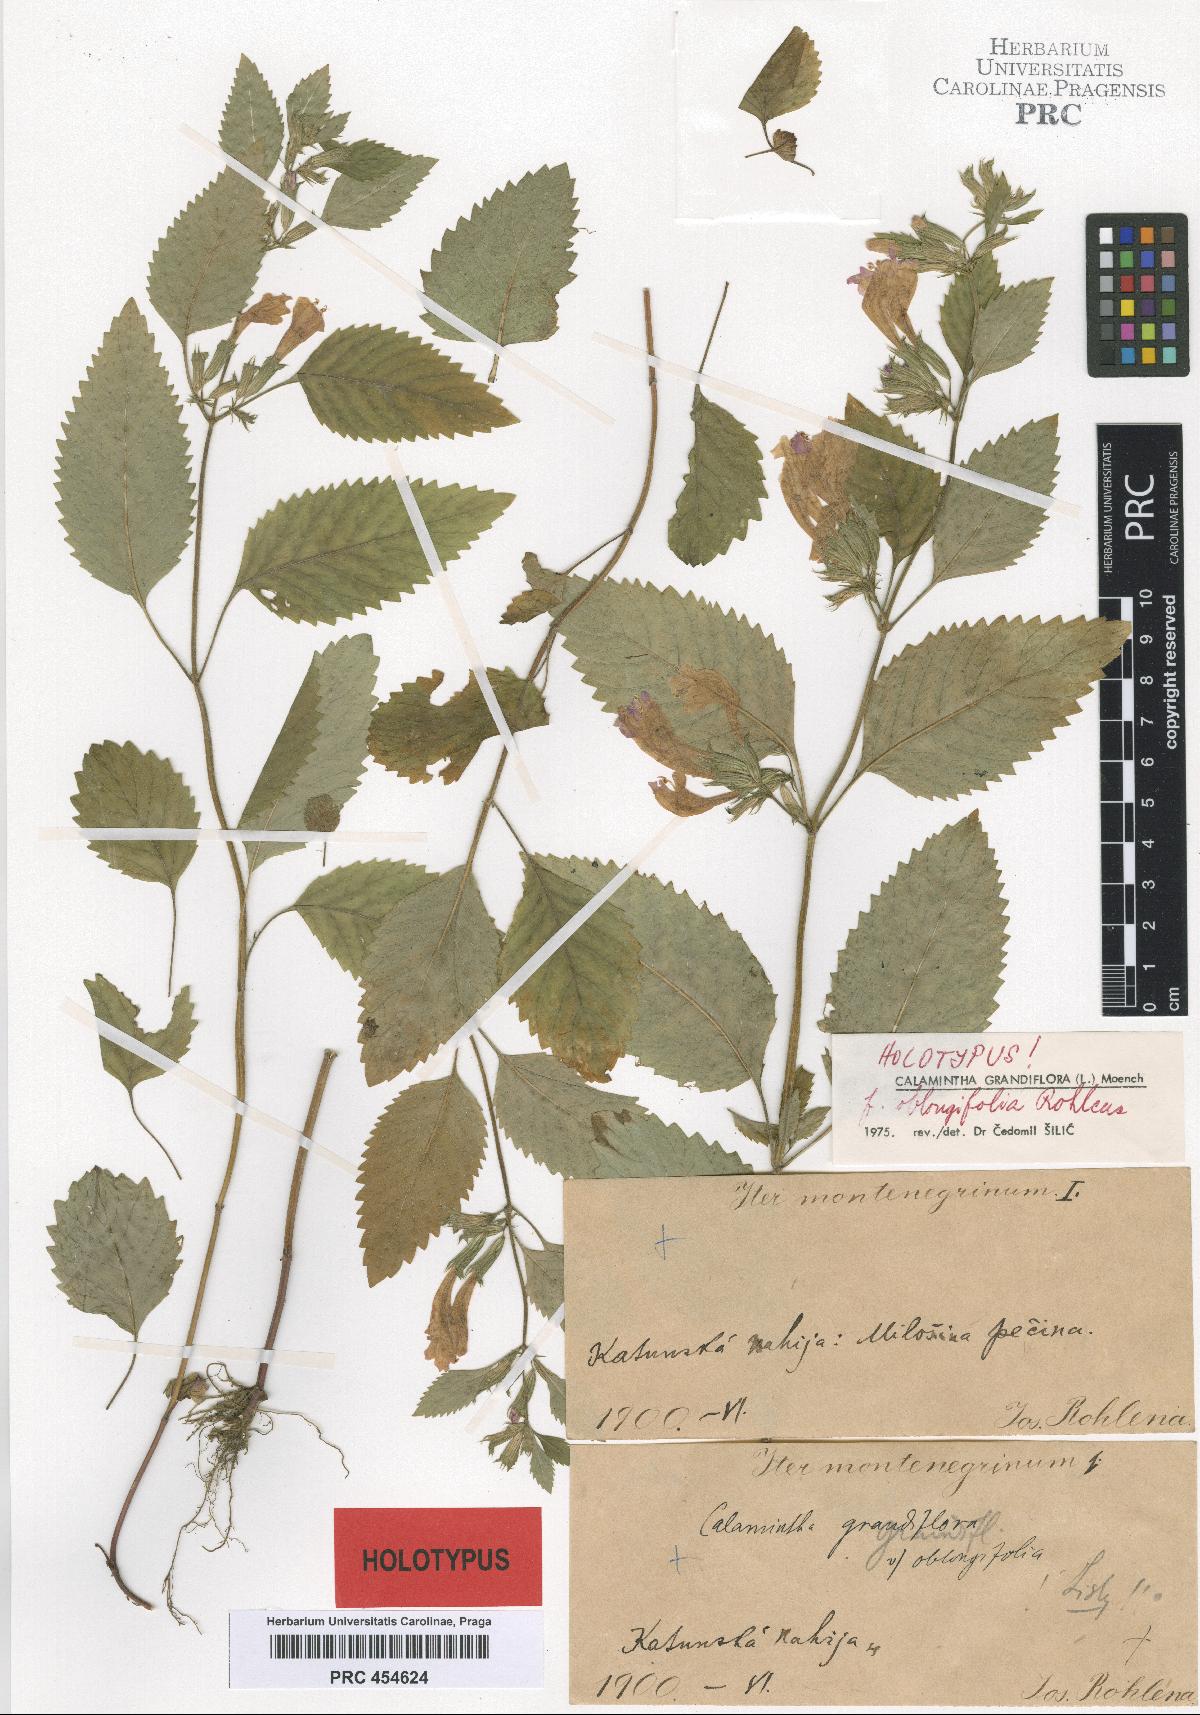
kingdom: Plantae
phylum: Tracheophyta
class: Magnoliopsida
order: Lamiales
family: Lamiaceae
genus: Clinopodium
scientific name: Clinopodium grandiflorum
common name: Greater calamint
